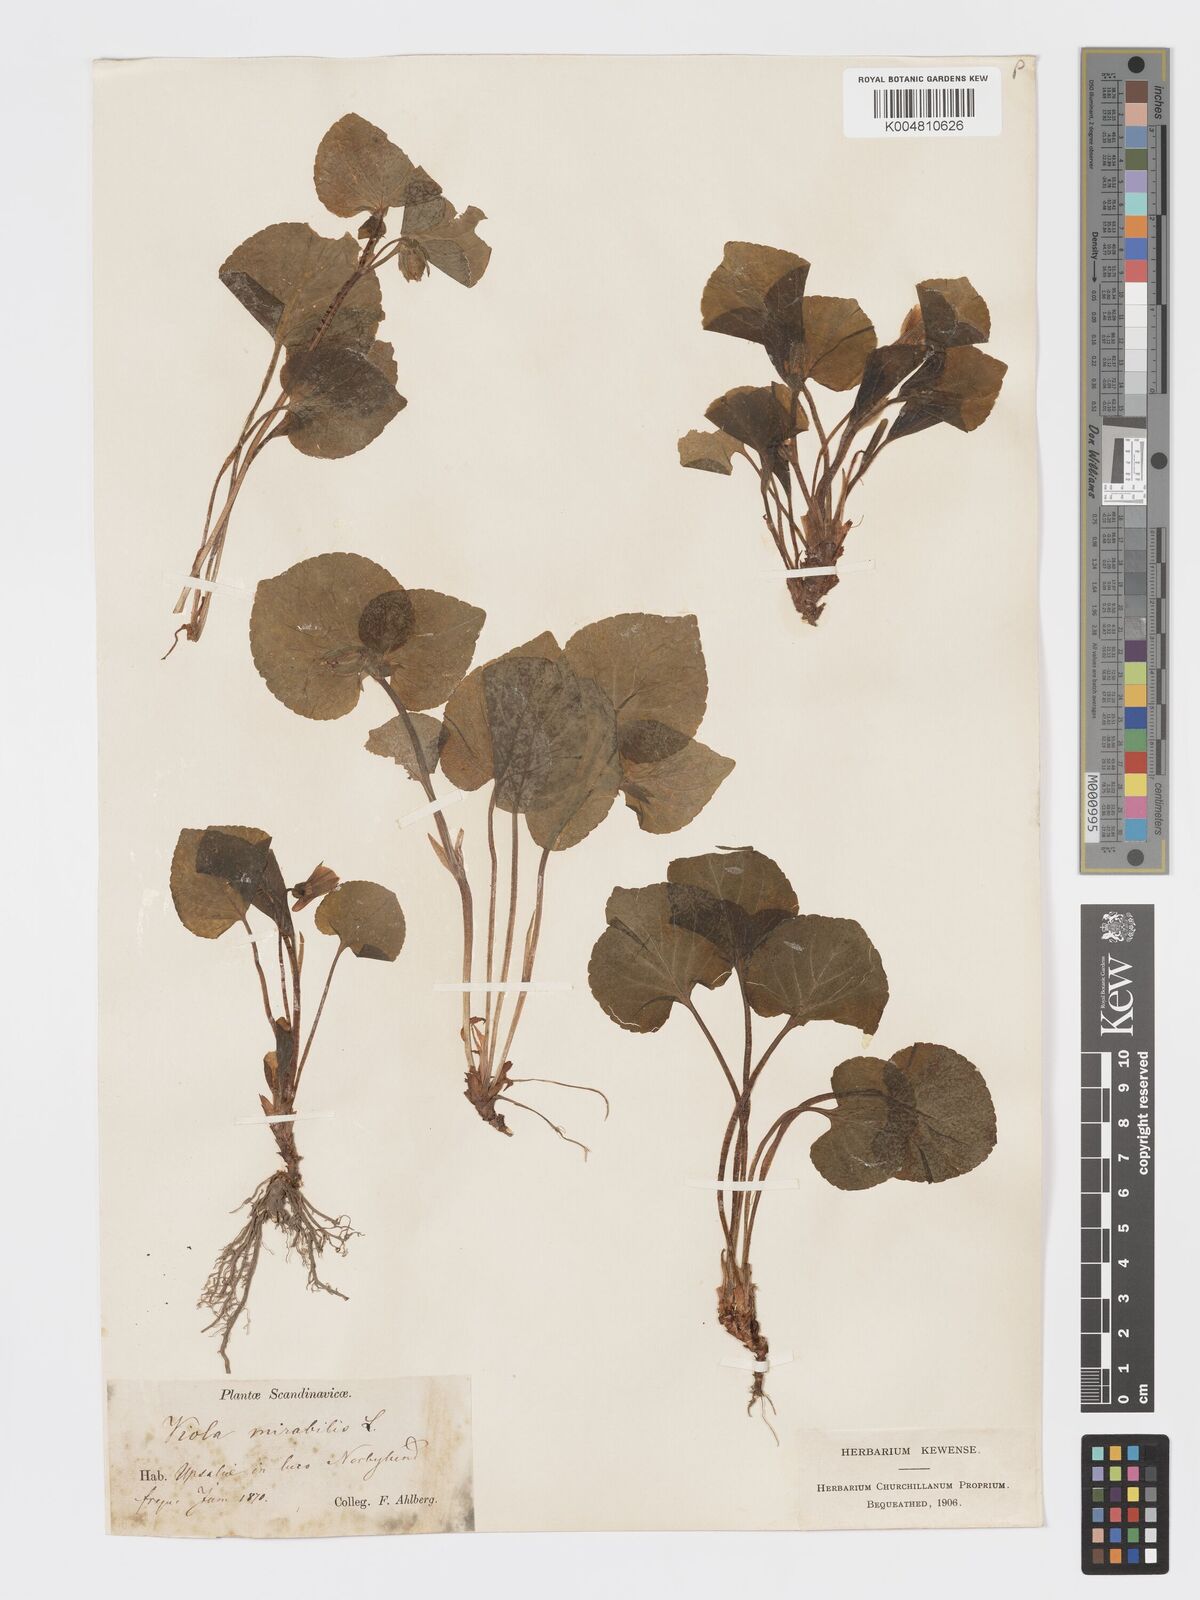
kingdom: Plantae
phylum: Tracheophyta
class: Magnoliopsida
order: Malpighiales
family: Violaceae
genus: Viola
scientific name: Viola mirabilis
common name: Wonder violet
